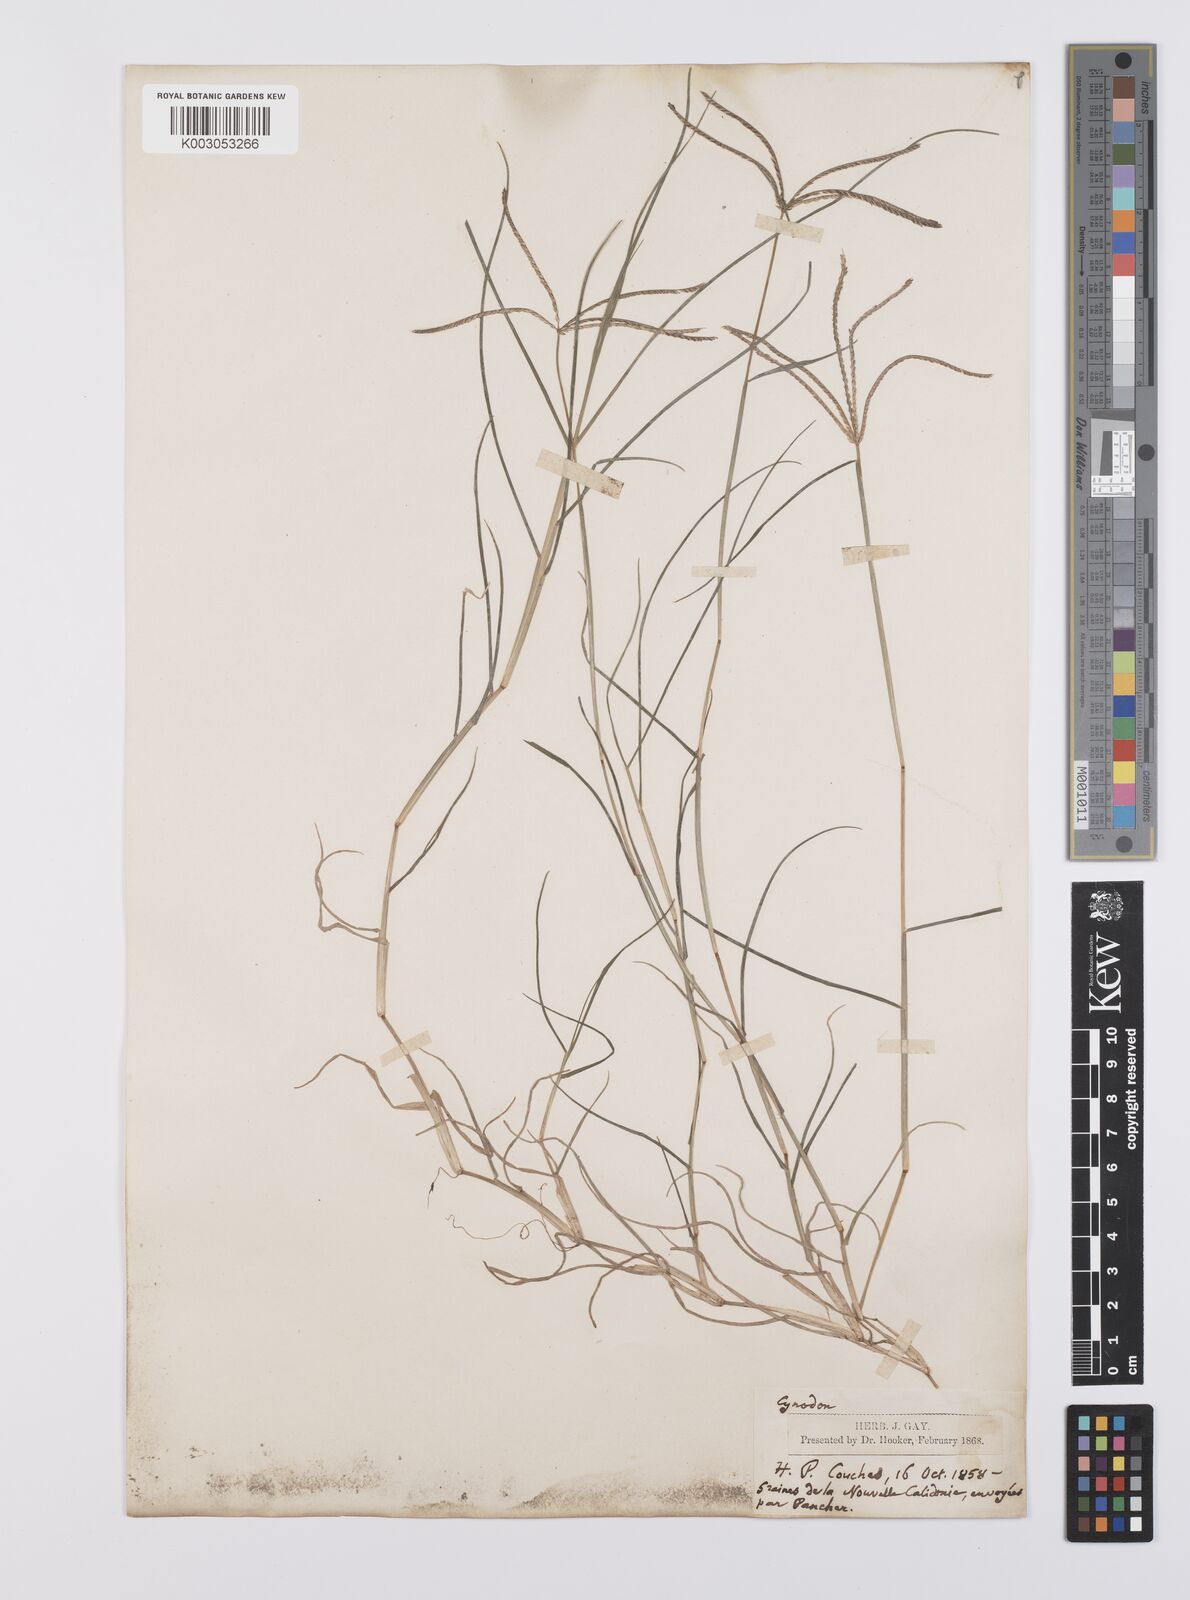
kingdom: Plantae
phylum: Tracheophyta
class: Liliopsida
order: Poales
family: Poaceae
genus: Cynodon
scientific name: Cynodon dactylon
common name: Bermuda grass
